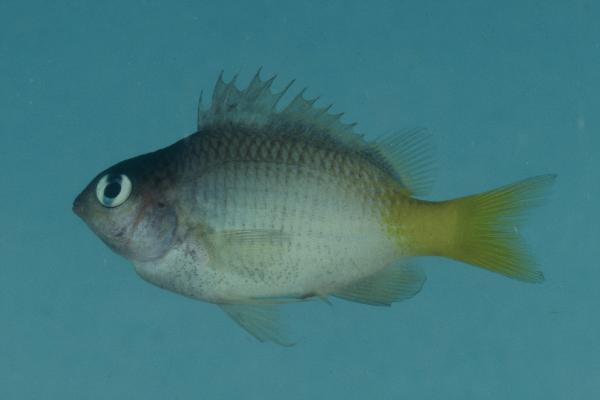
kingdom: Animalia
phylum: Chordata
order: Perciformes
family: Pomacentridae
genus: Plectroglyphidodon
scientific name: Plectroglyphidodon imparipennis
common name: Brighteye damsel
